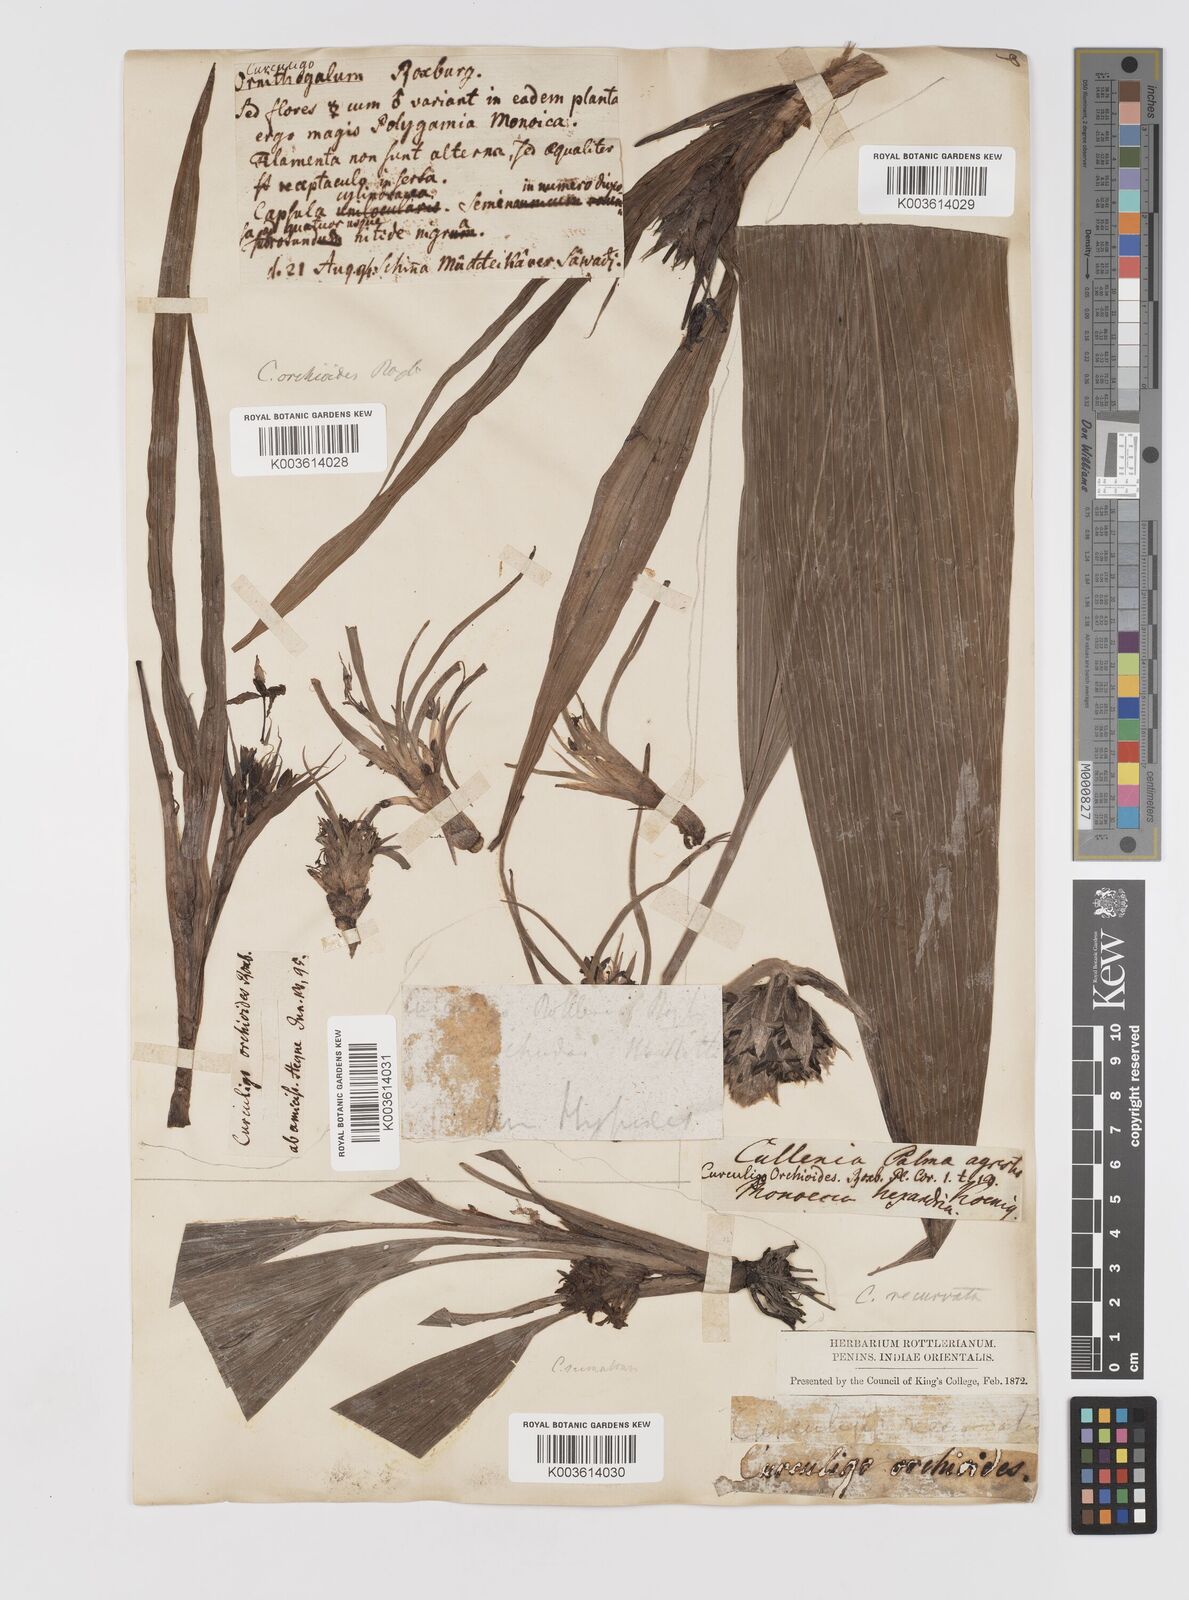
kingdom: Plantae
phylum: Tracheophyta
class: Liliopsida
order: Asparagales
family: Hypoxidaceae
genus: Curculigo
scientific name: Curculigo orchioides
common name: Golden eye-grass
